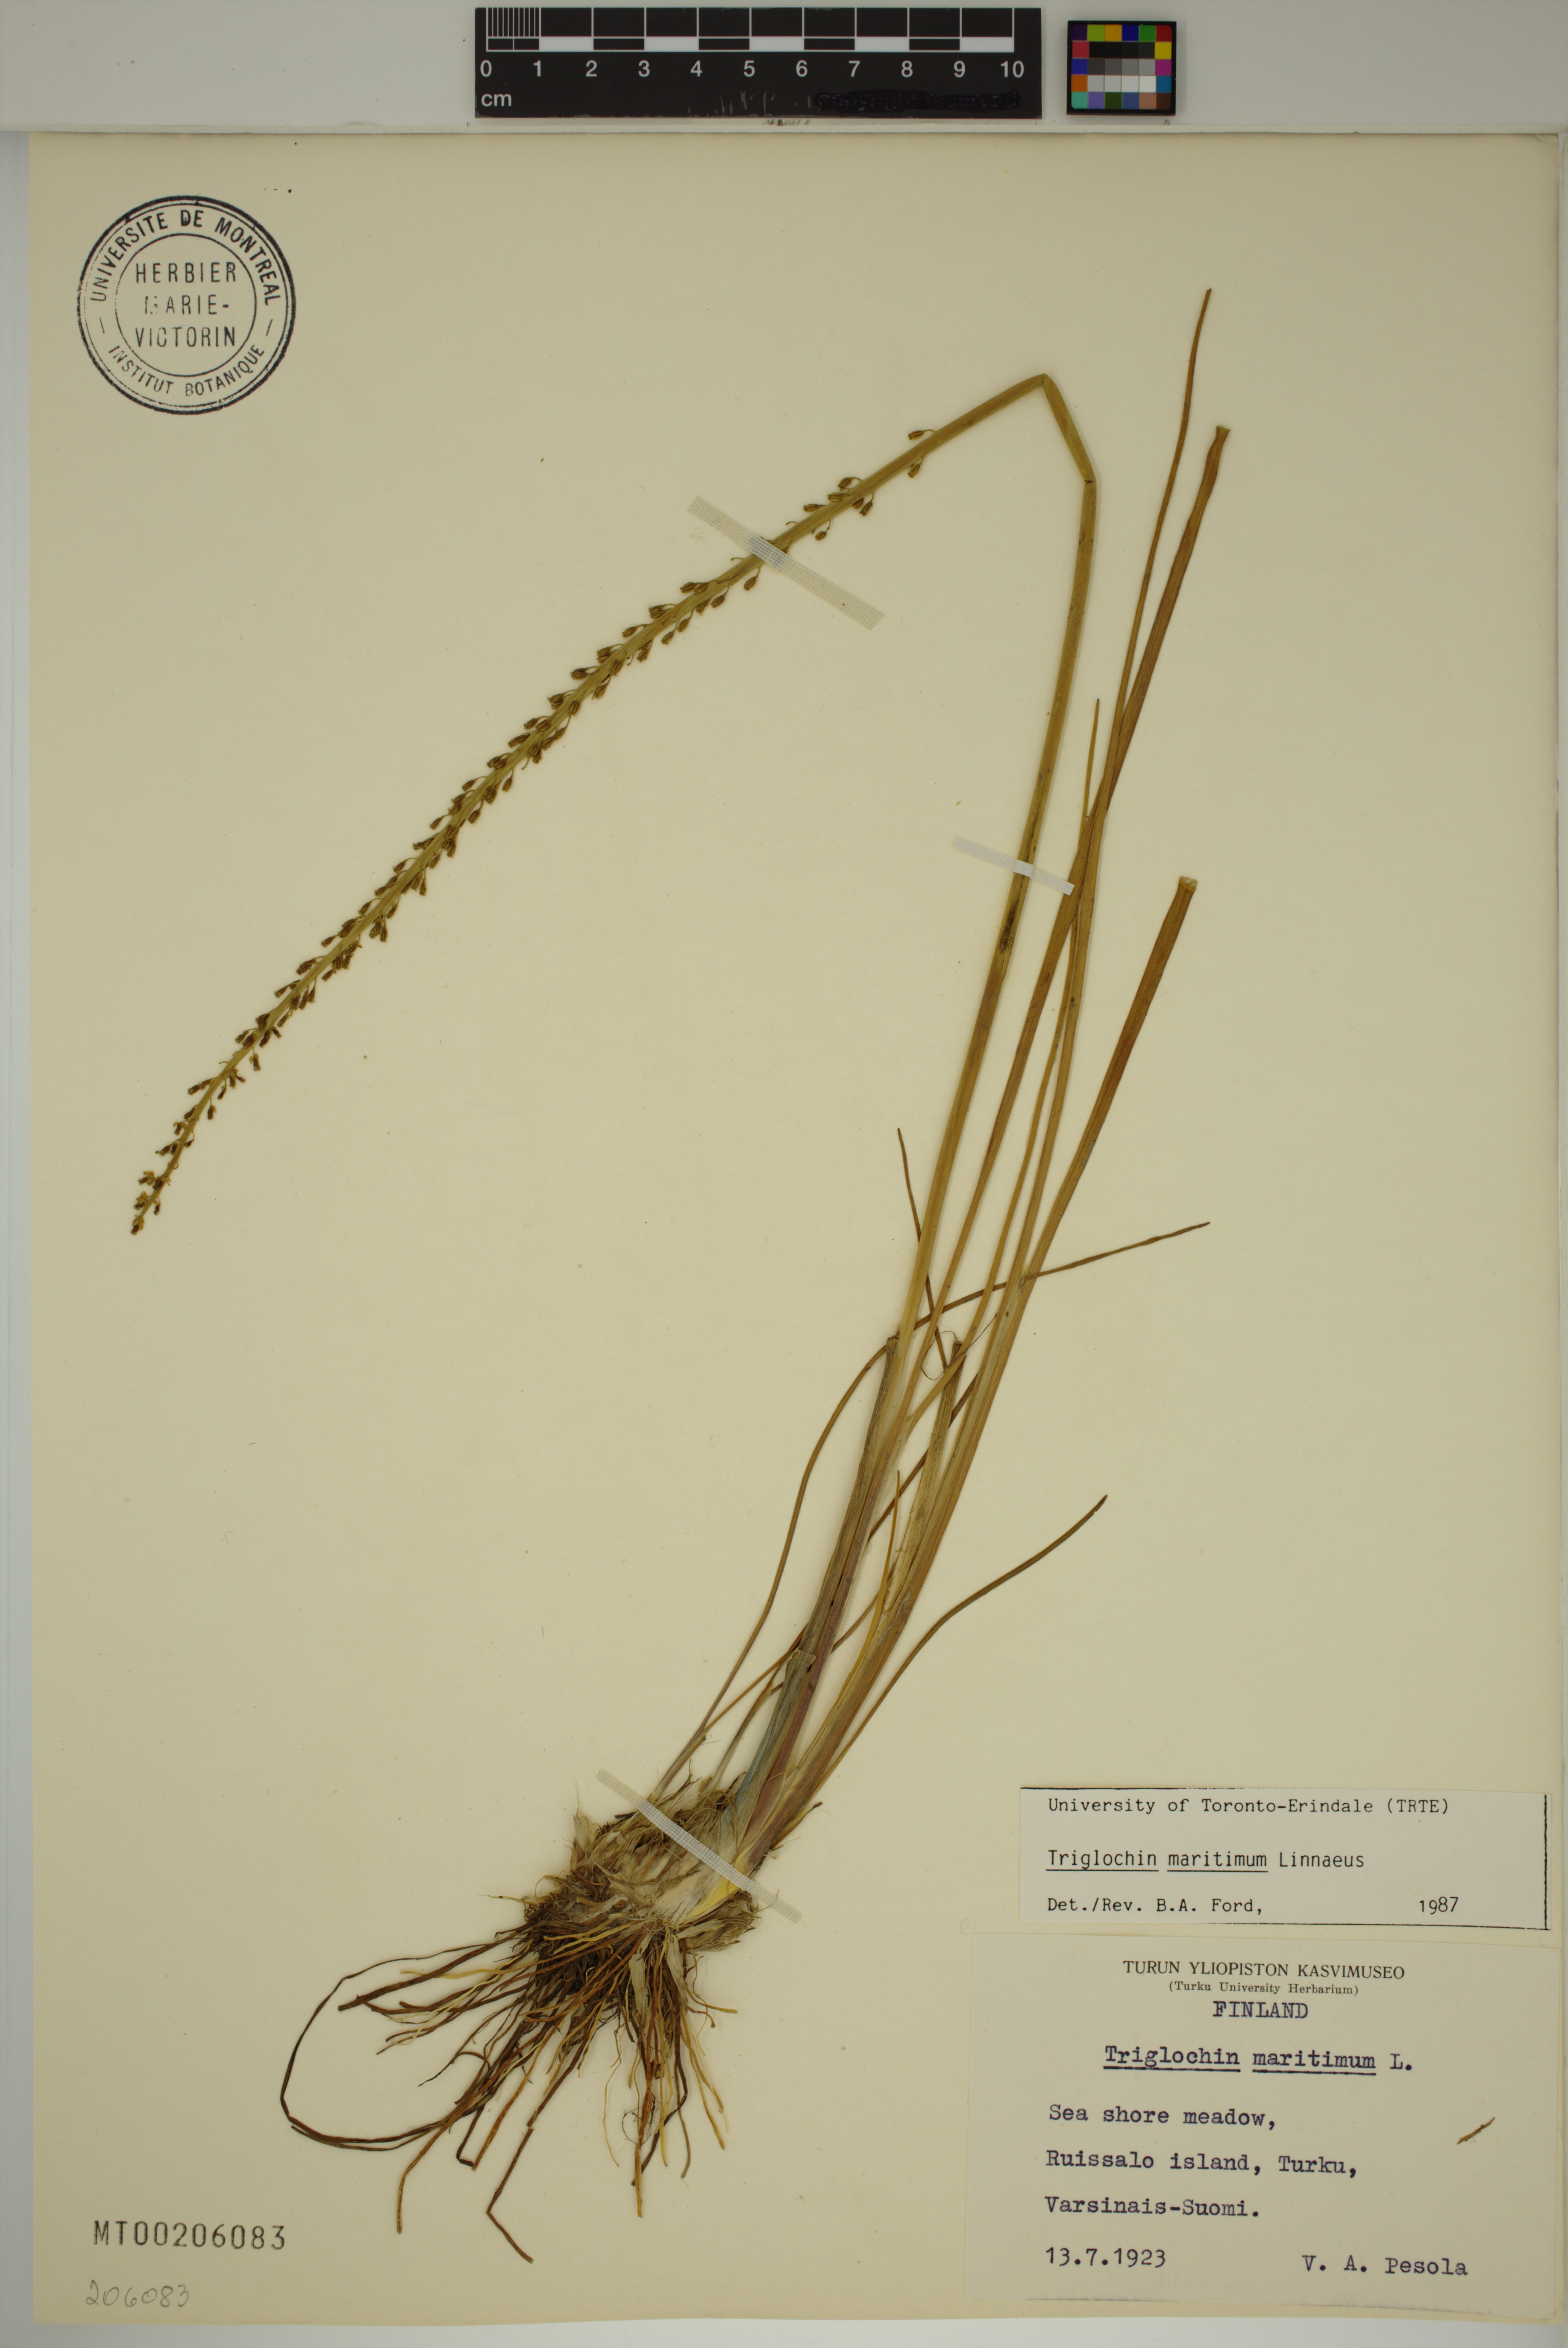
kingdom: Plantae
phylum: Tracheophyta
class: Liliopsida
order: Alismatales
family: Juncaginaceae
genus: Triglochin
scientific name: Triglochin maritima
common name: Sea arrowgrass
